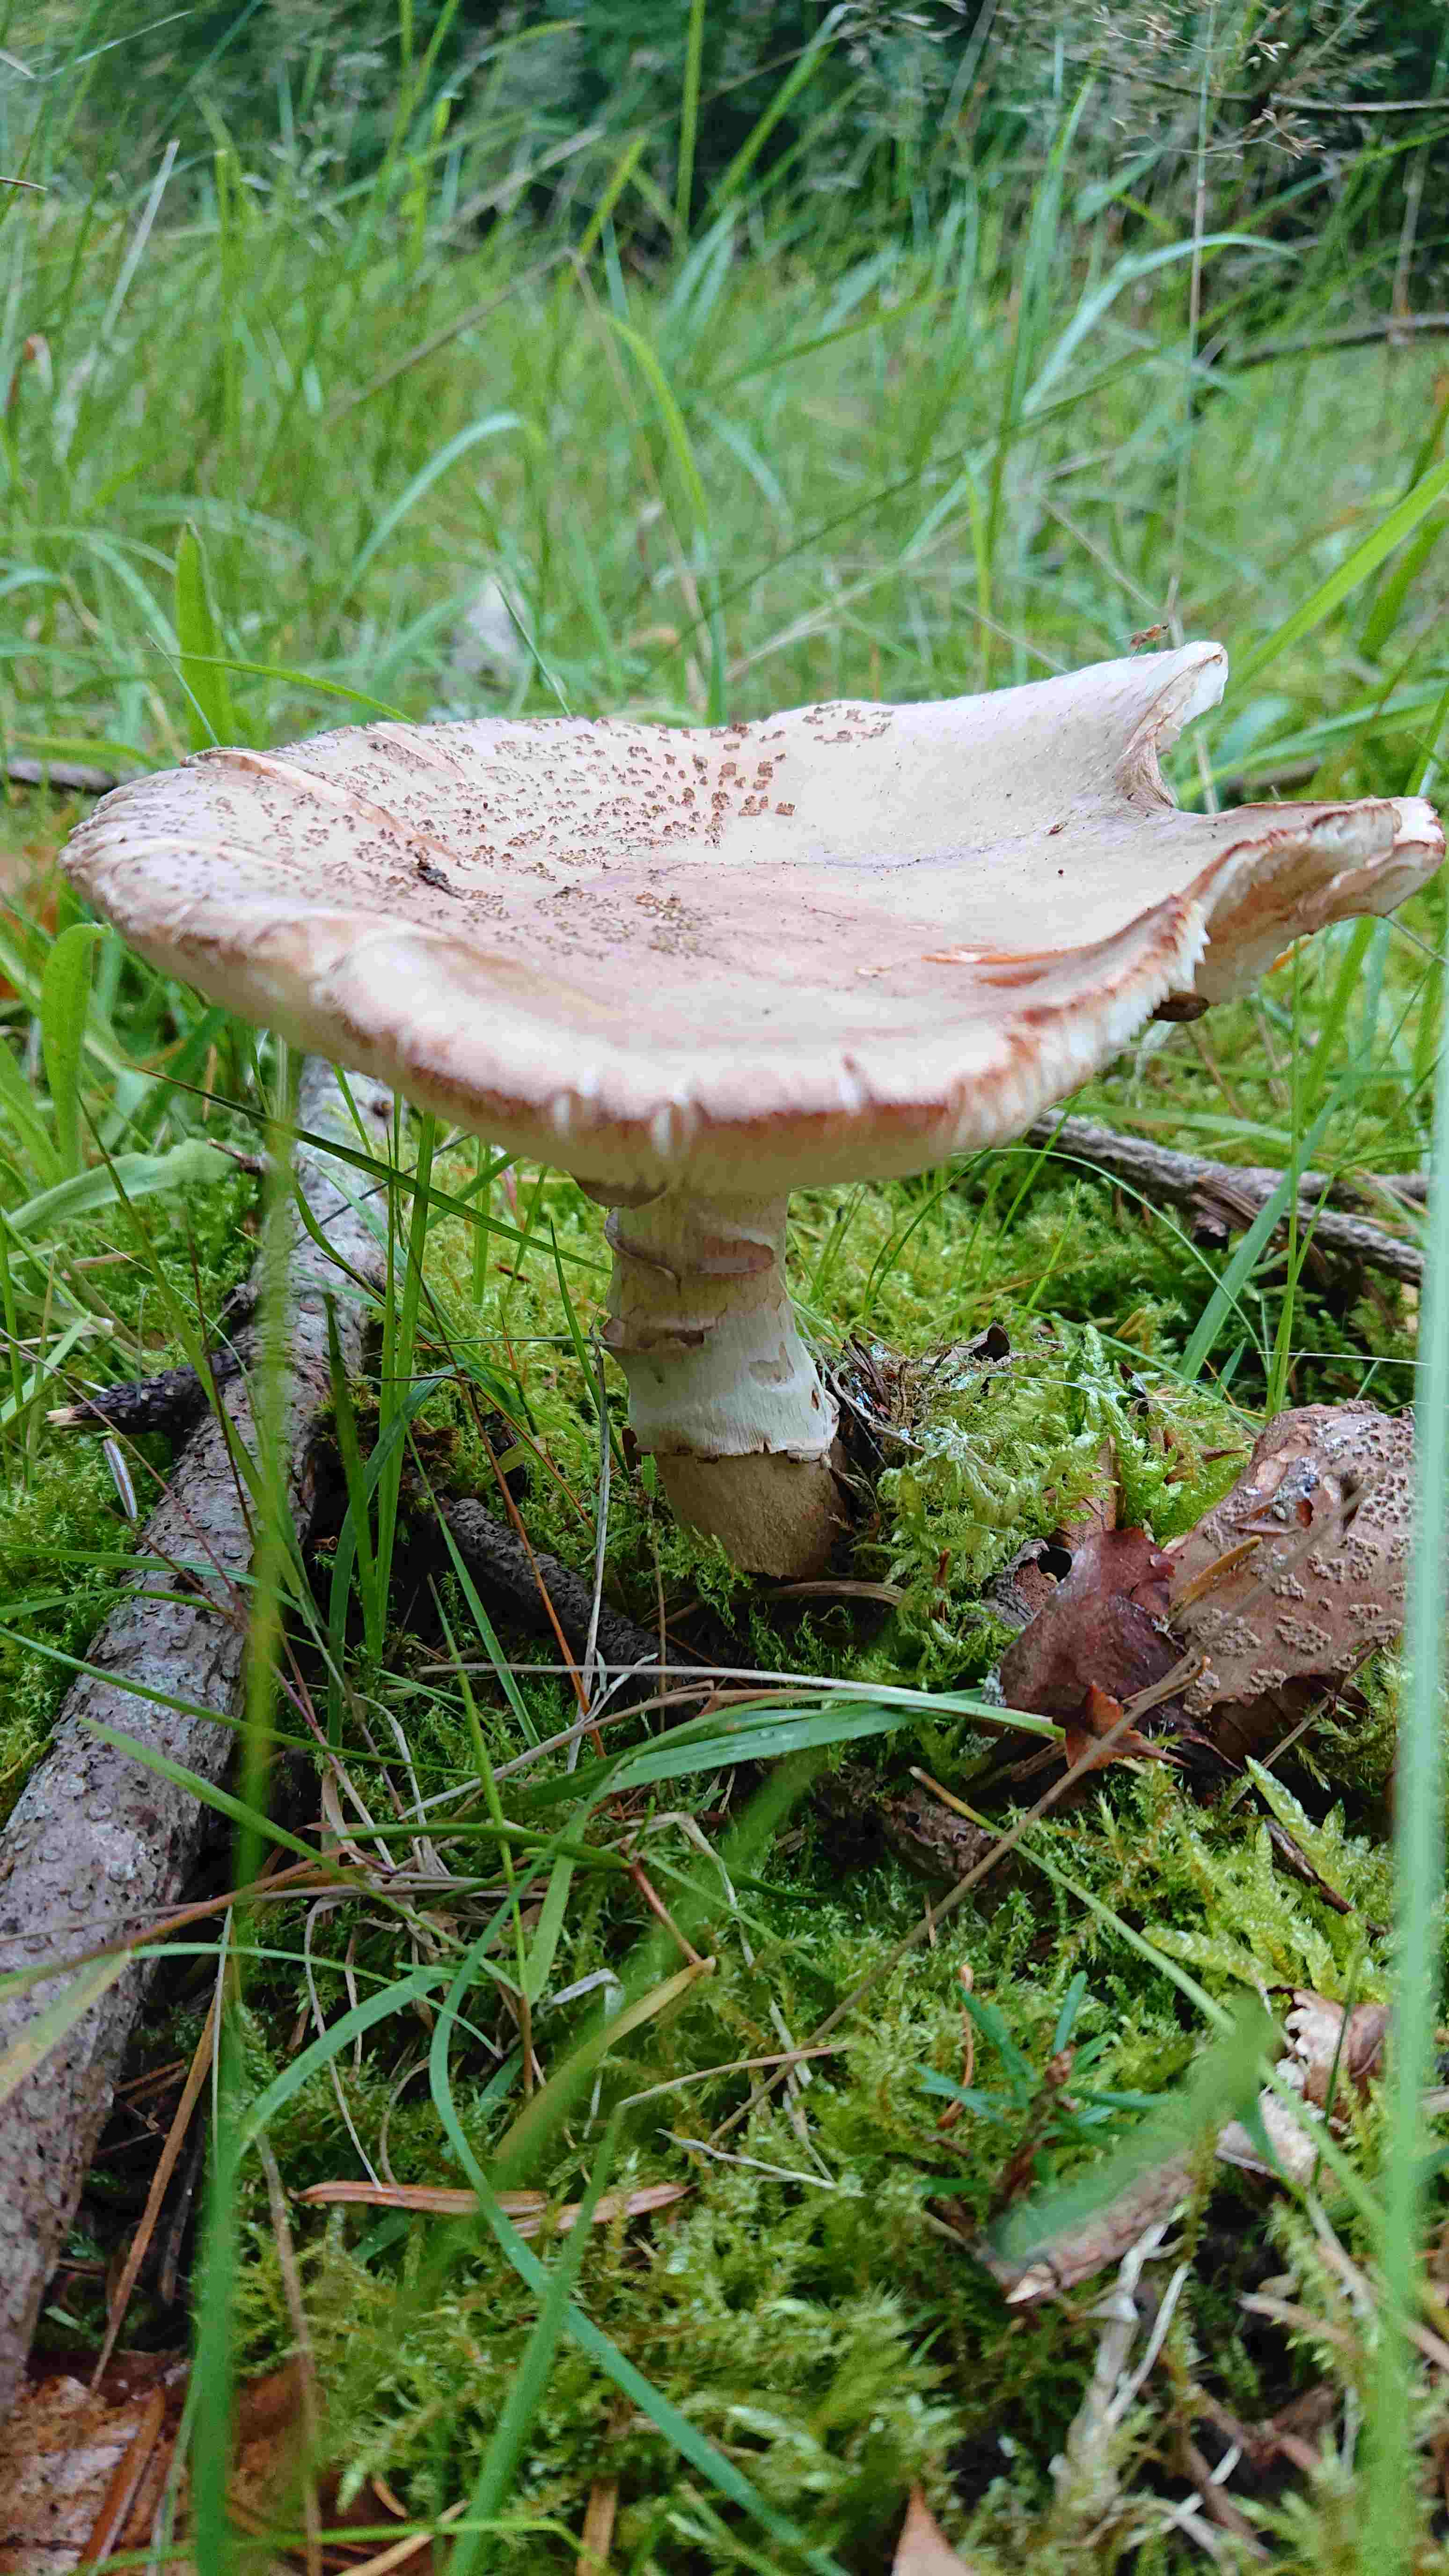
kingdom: Fungi
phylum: Basidiomycota
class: Agaricomycetes
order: Agaricales
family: Amanitaceae
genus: Amanita
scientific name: Amanita rubescens
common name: rødmende fluesvamp
